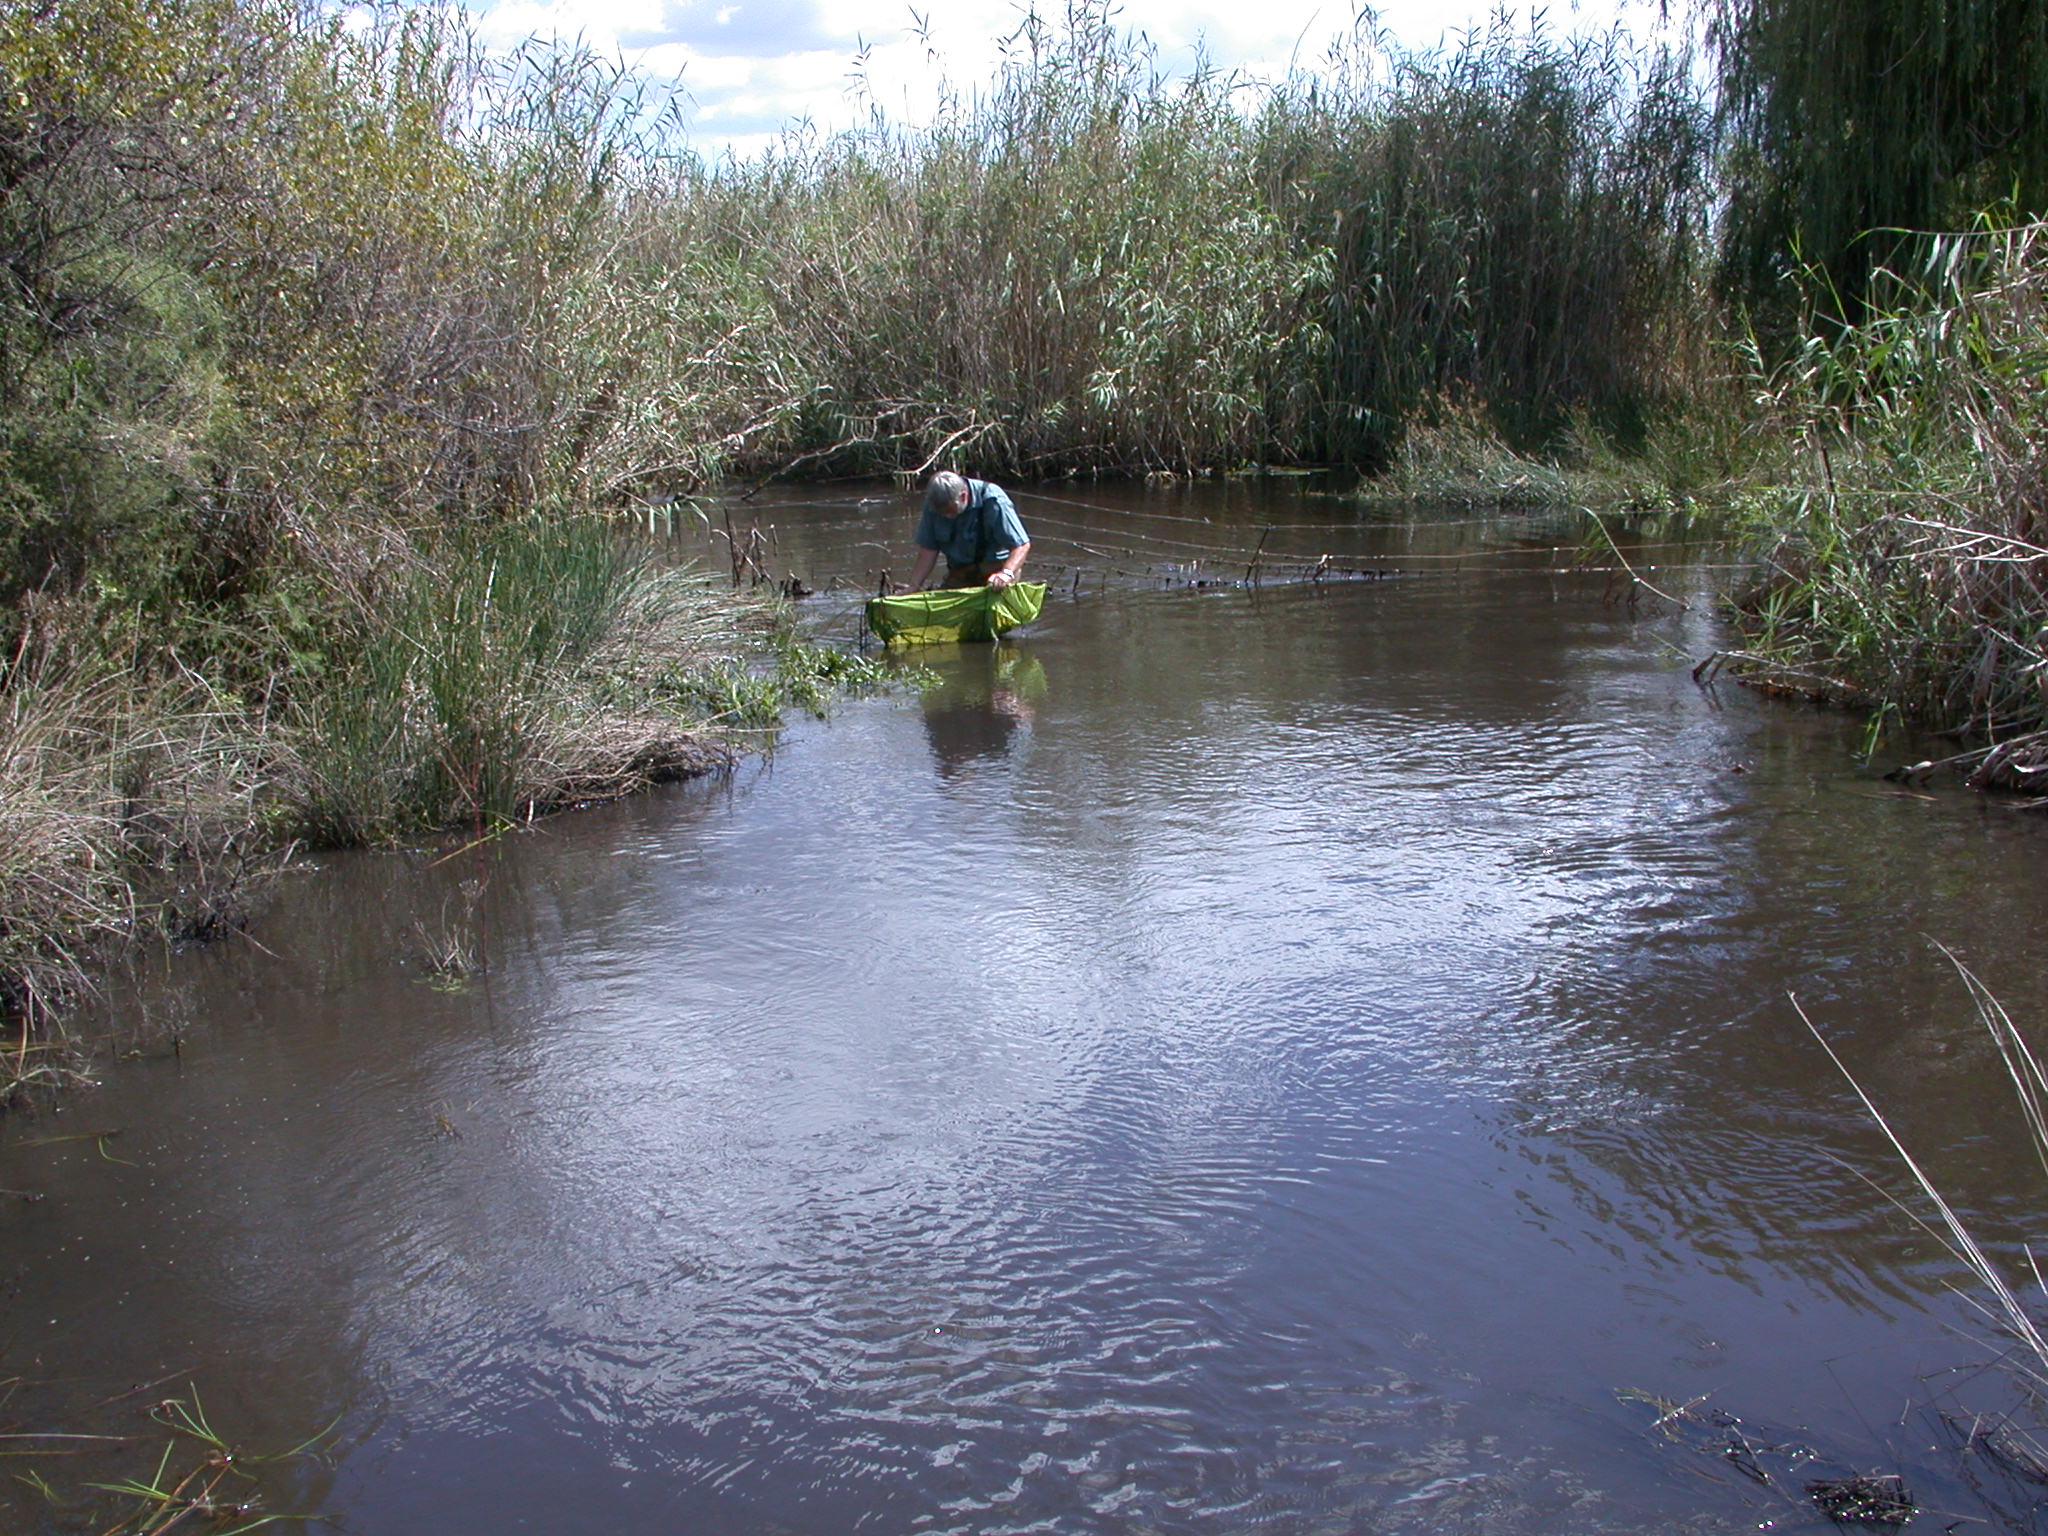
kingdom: Animalia
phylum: Chordata
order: Cypriniformes
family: Cyprinidae
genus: Enteromius
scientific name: Enteromius paludinosus
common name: Straightfin barb
